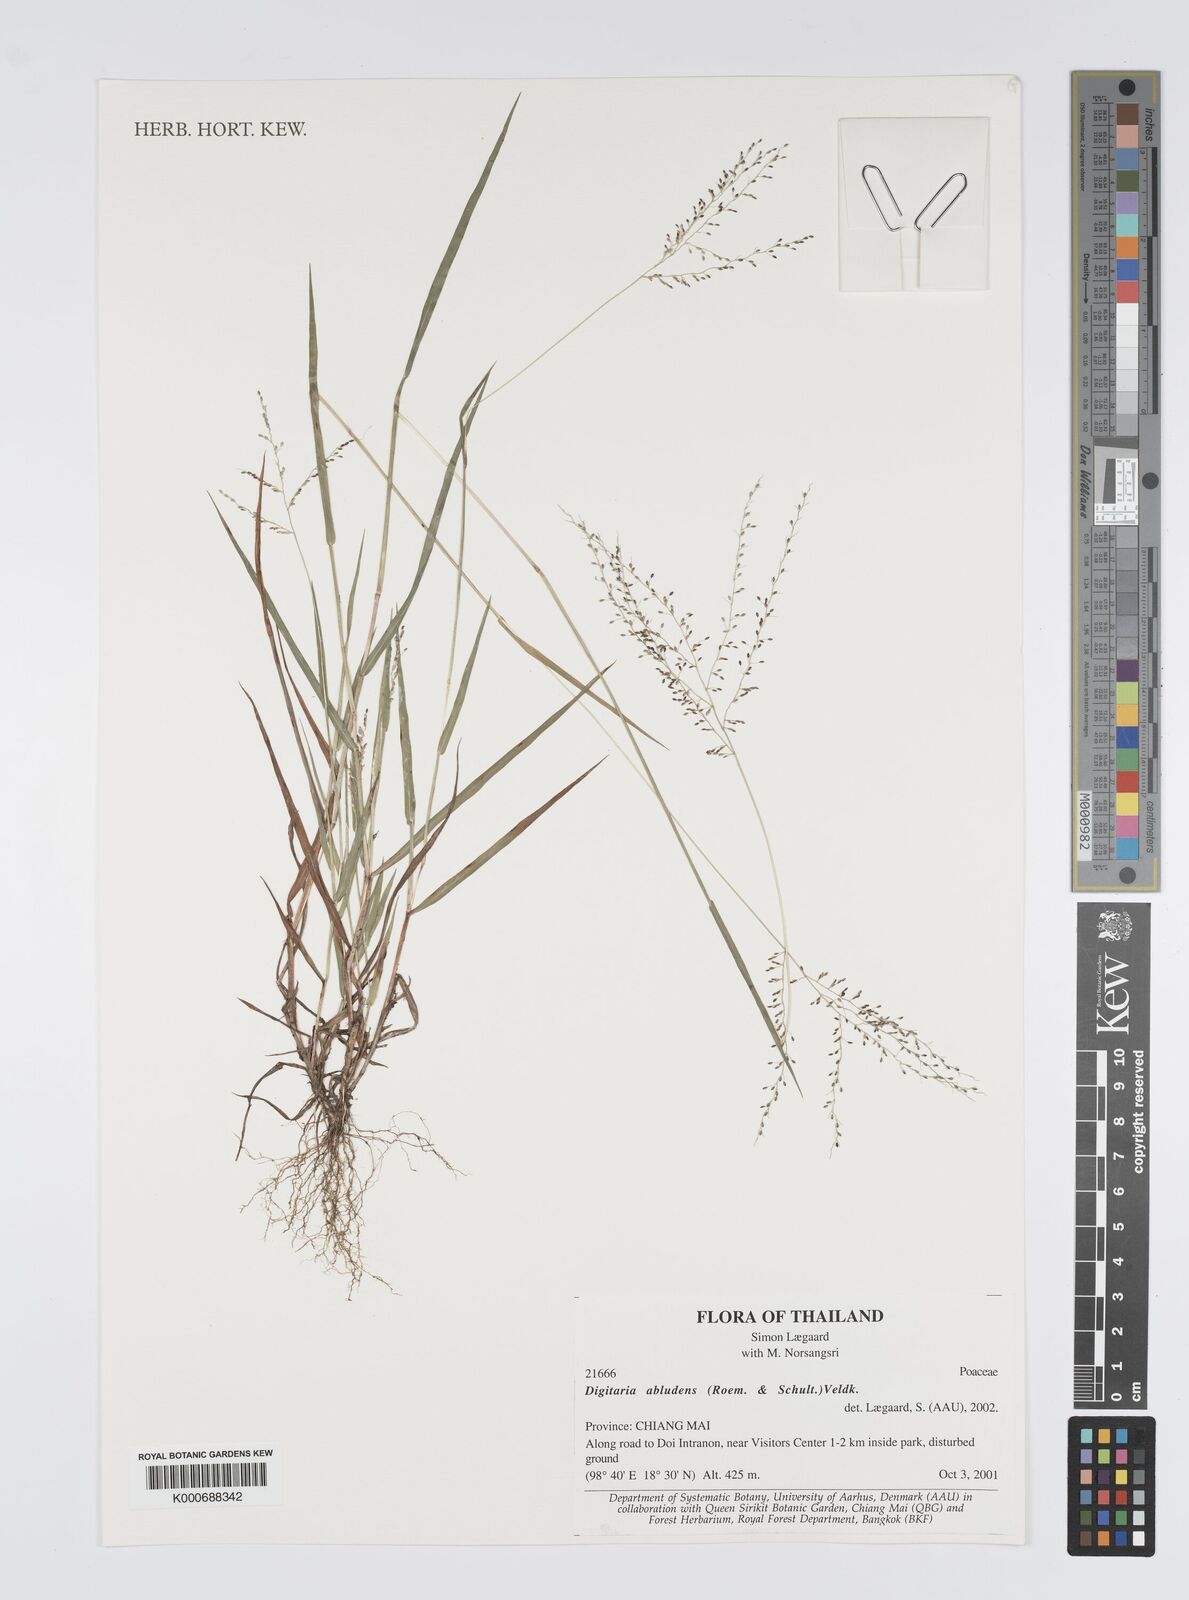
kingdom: Plantae
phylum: Tracheophyta
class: Liliopsida
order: Poales
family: Poaceae
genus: Digitaria
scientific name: Digitaria abludens
